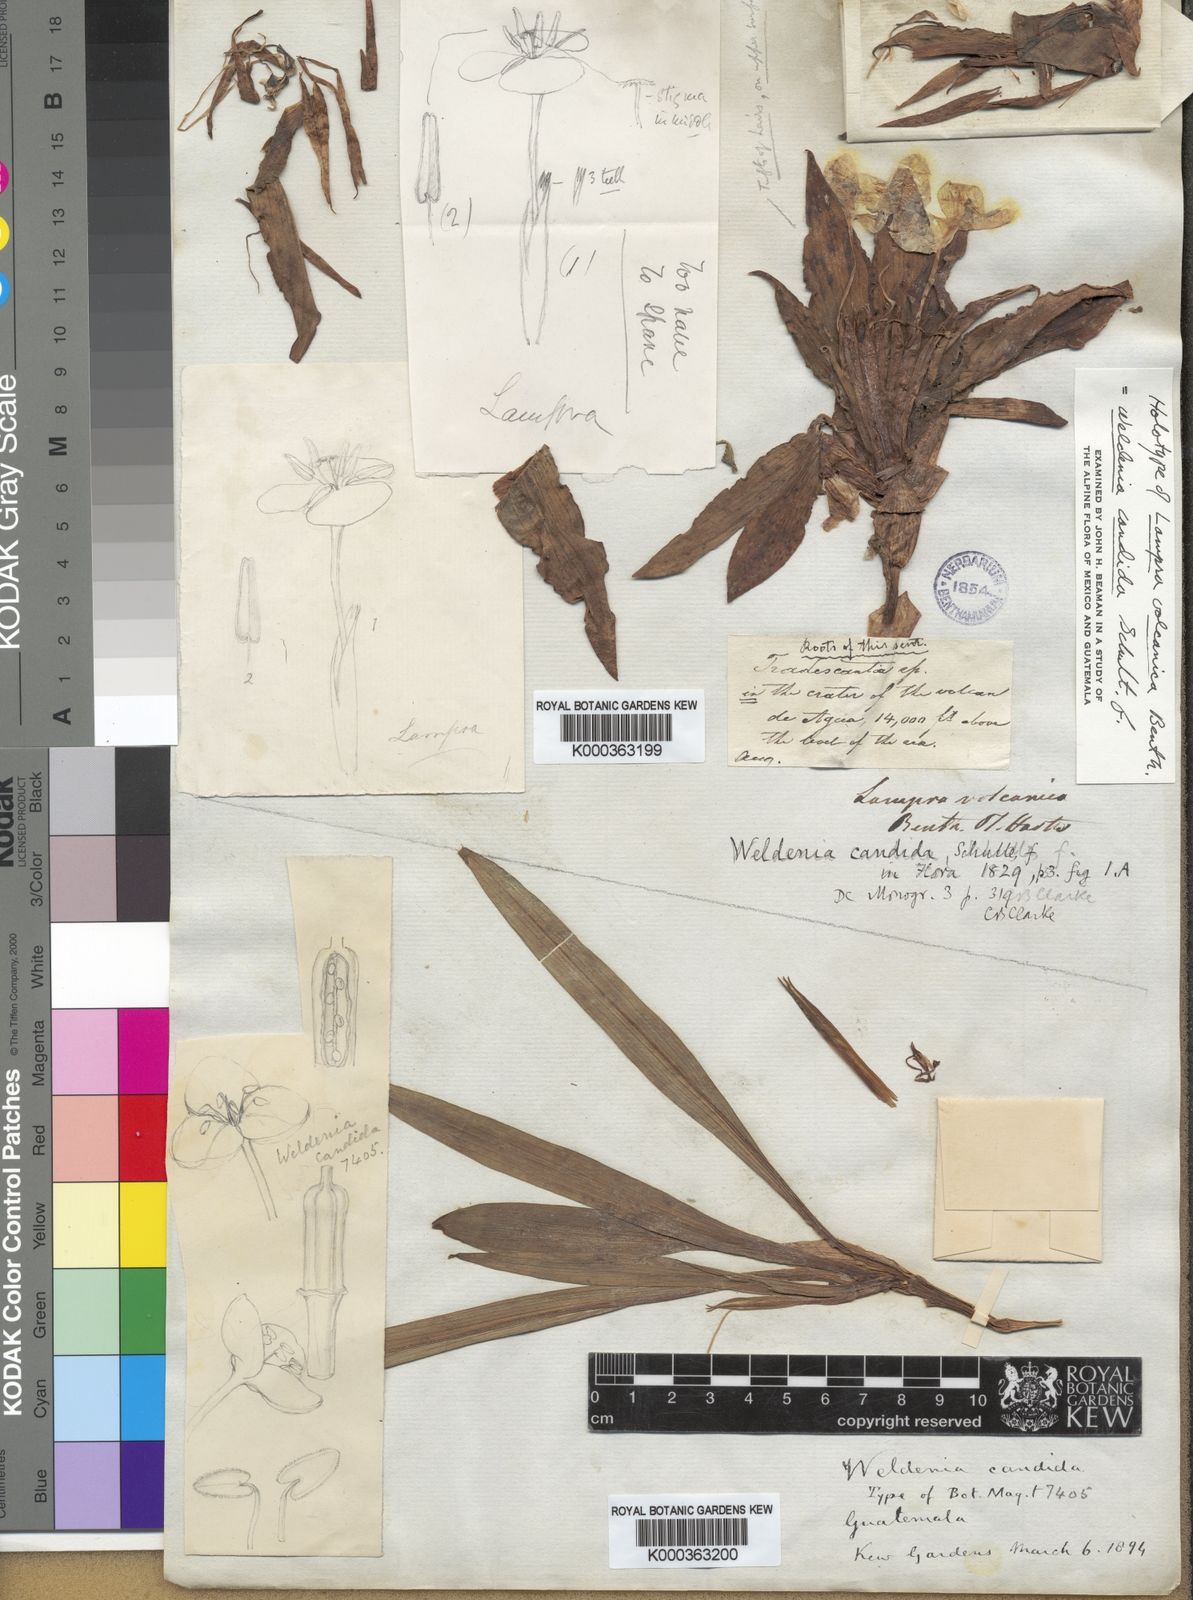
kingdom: Plantae
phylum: Tracheophyta
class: Liliopsida
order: Commelinales
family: Commelinaceae
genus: Weldenia
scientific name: Weldenia
